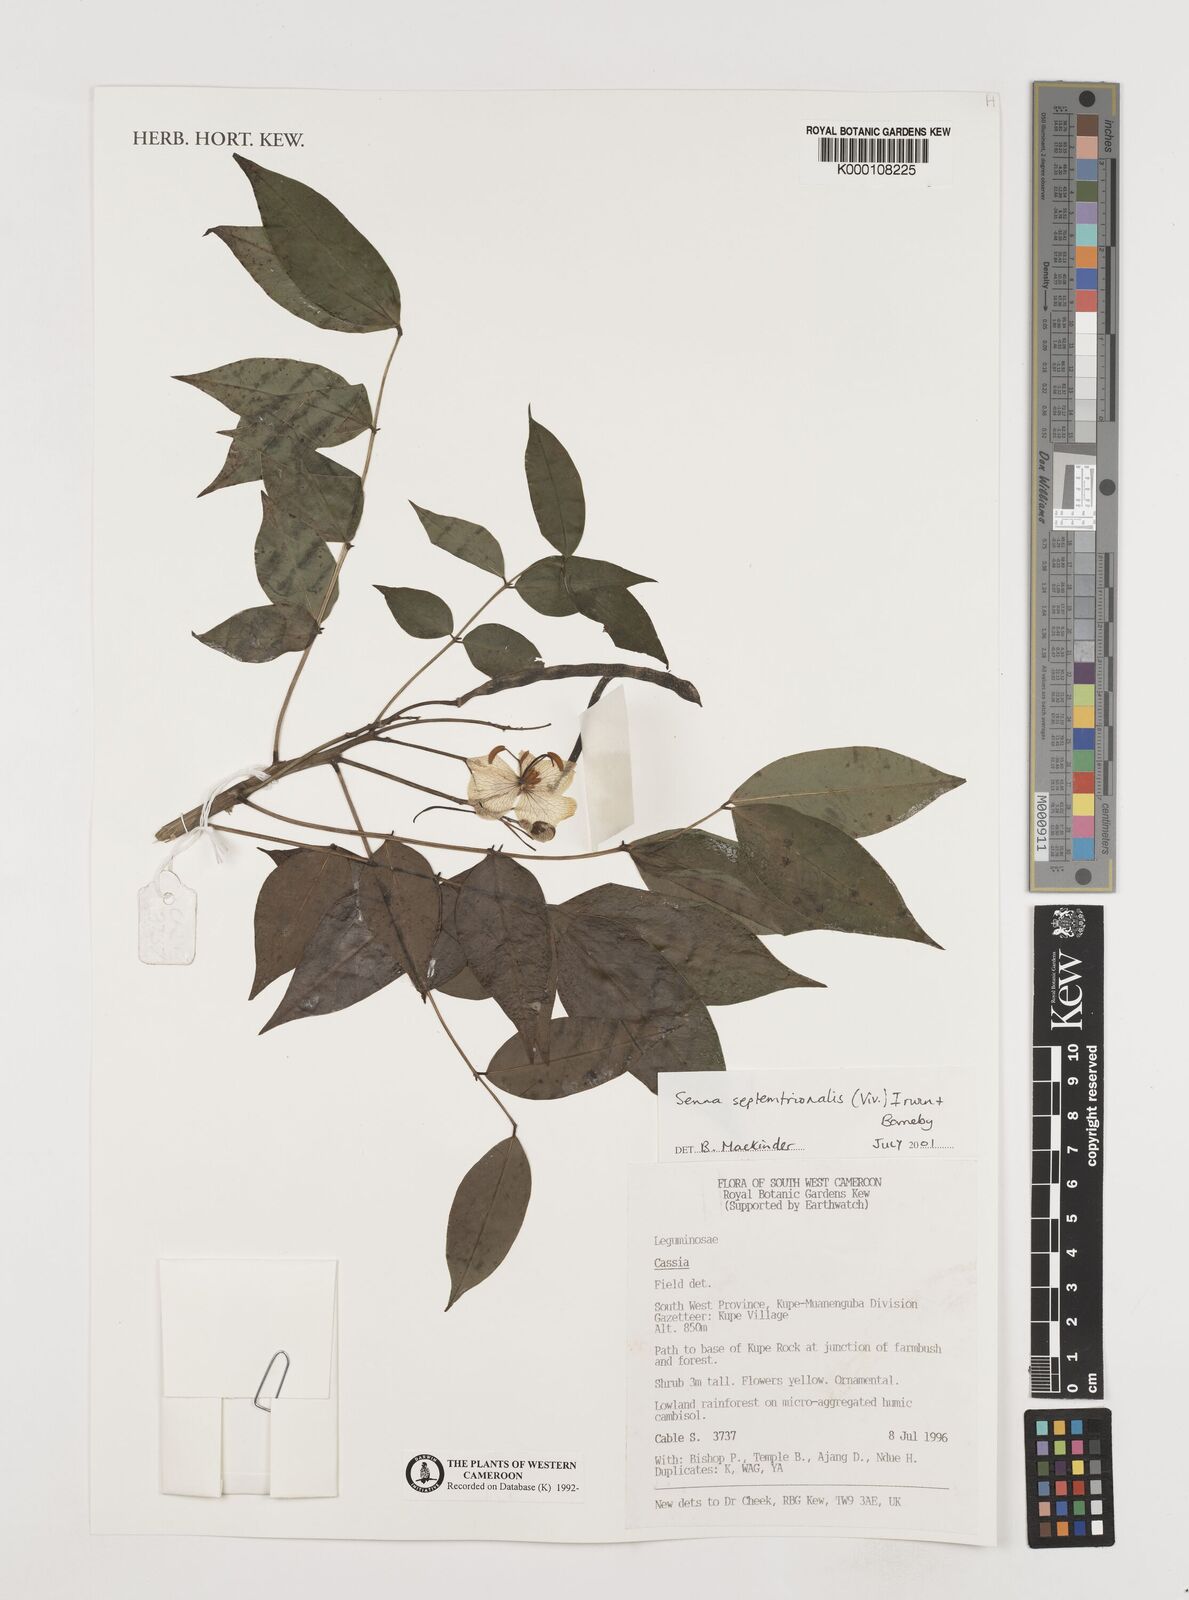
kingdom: Plantae
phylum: Tracheophyta
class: Magnoliopsida
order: Fabales
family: Fabaceae
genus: Senna
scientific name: Senna septemtrionalis
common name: Arsenic bush
